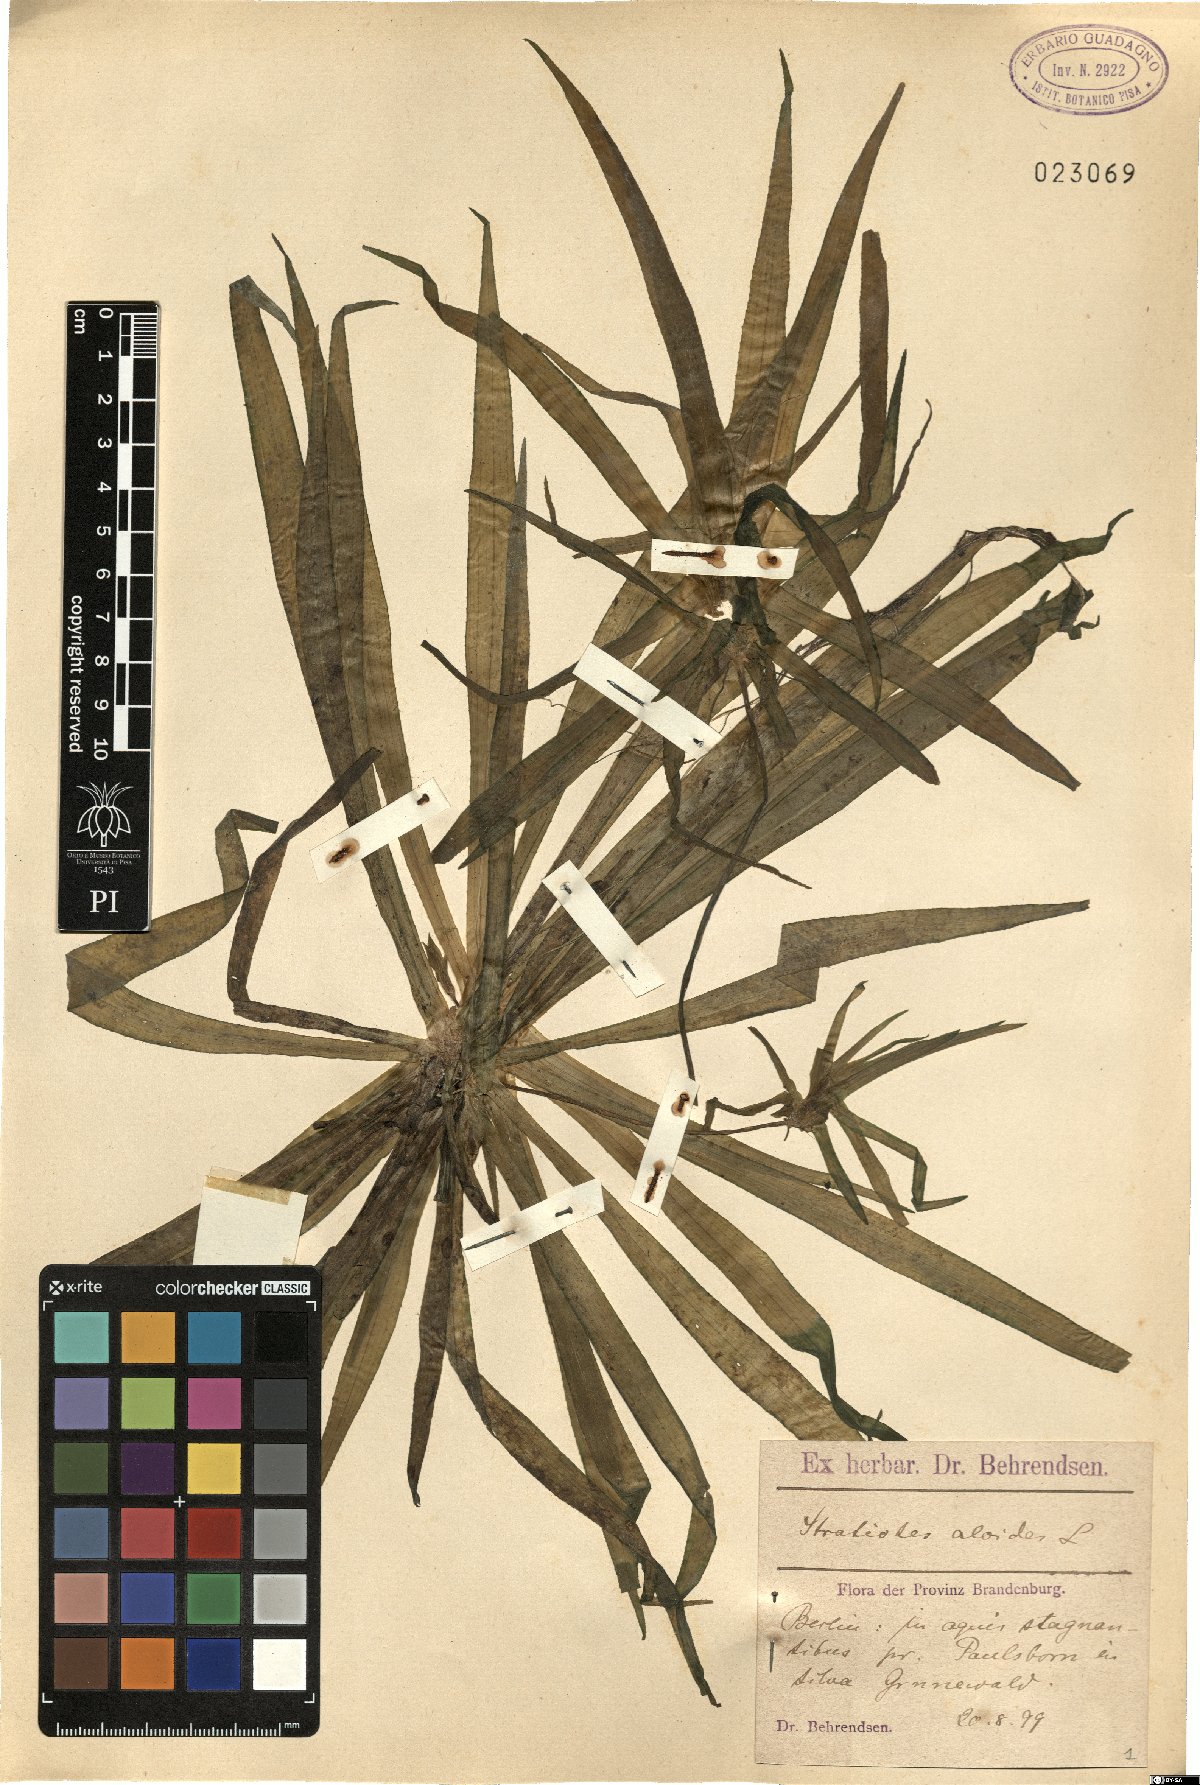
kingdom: Plantae
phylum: Tracheophyta
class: Liliopsida
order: Alismatales
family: Hydrocharitaceae
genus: Stratiotes
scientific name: Stratiotes aloides
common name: Water-soldier
